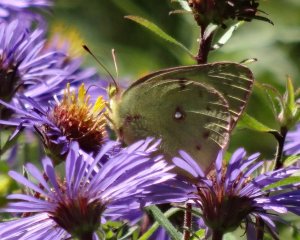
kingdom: Animalia
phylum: Arthropoda
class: Insecta
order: Lepidoptera
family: Pieridae
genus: Colias
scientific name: Colias philodice
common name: Clouded Sulphur
